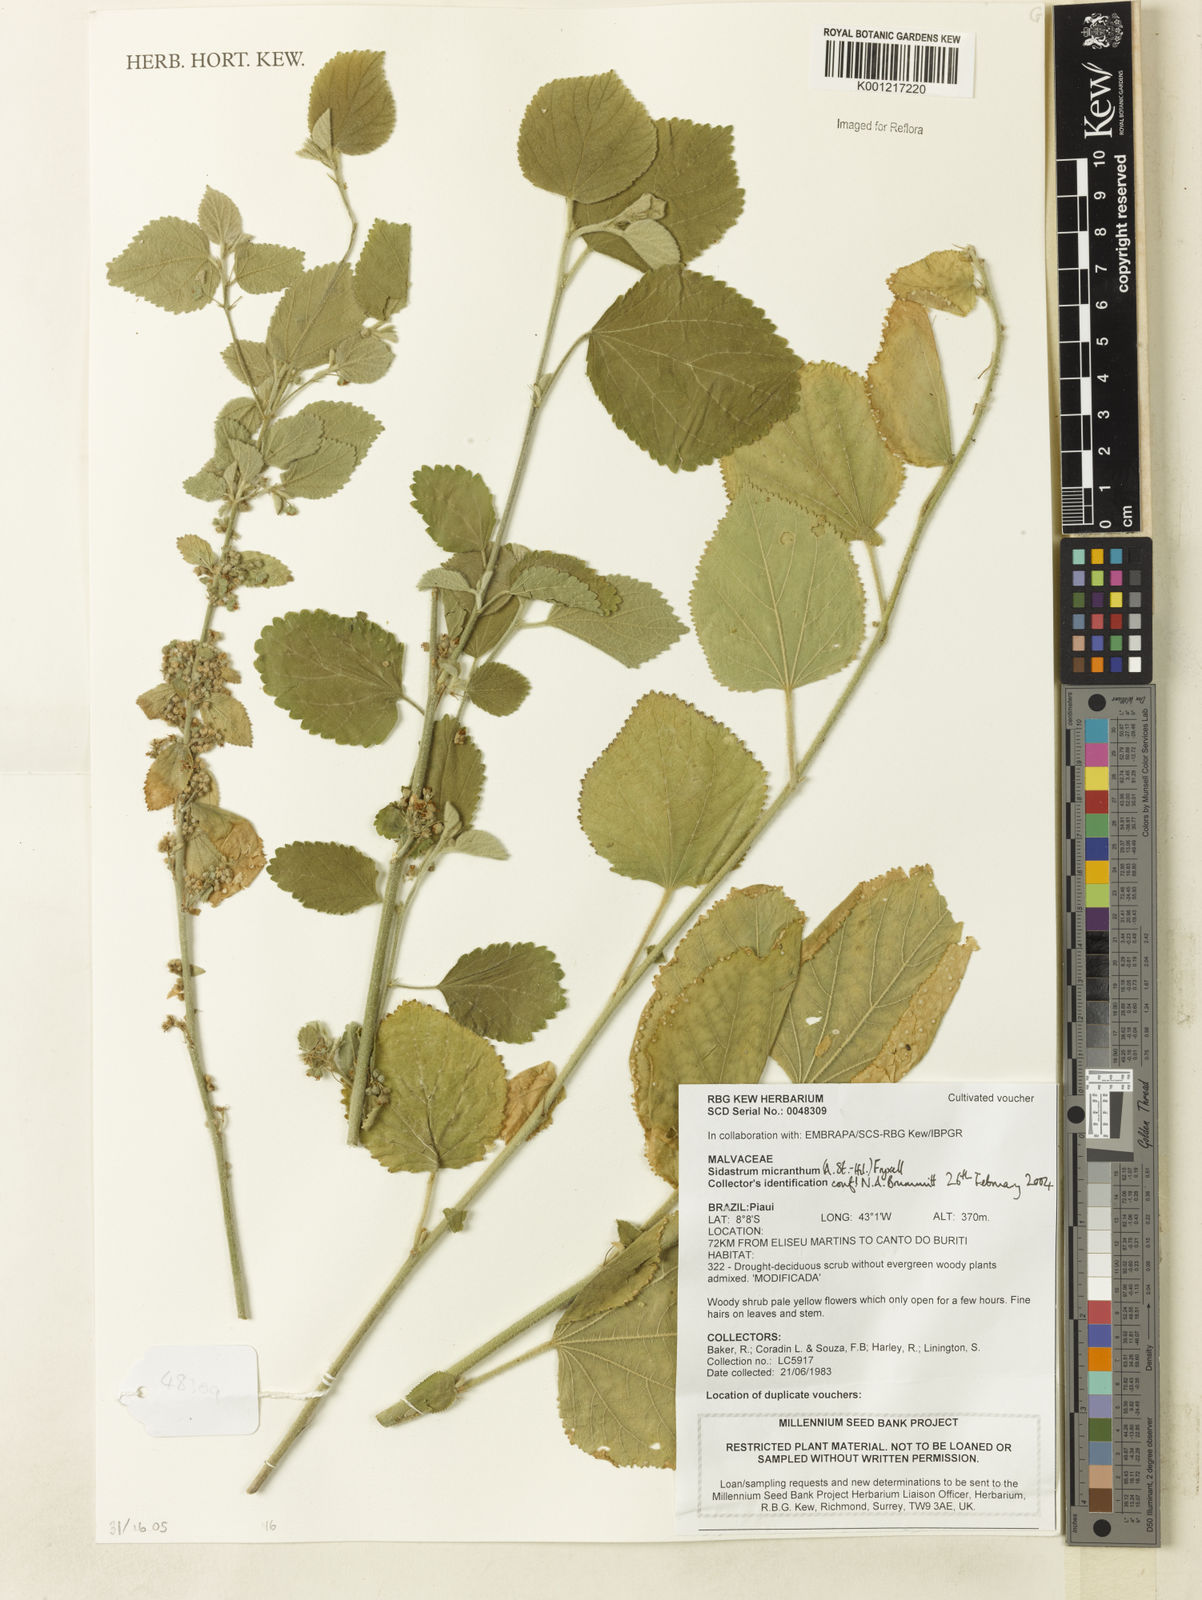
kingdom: Plantae
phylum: Tracheophyta
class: Magnoliopsida
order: Malvales
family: Malvaceae
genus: Sidastrum
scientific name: Sidastrum micranthum
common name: Dainty sandmallow
